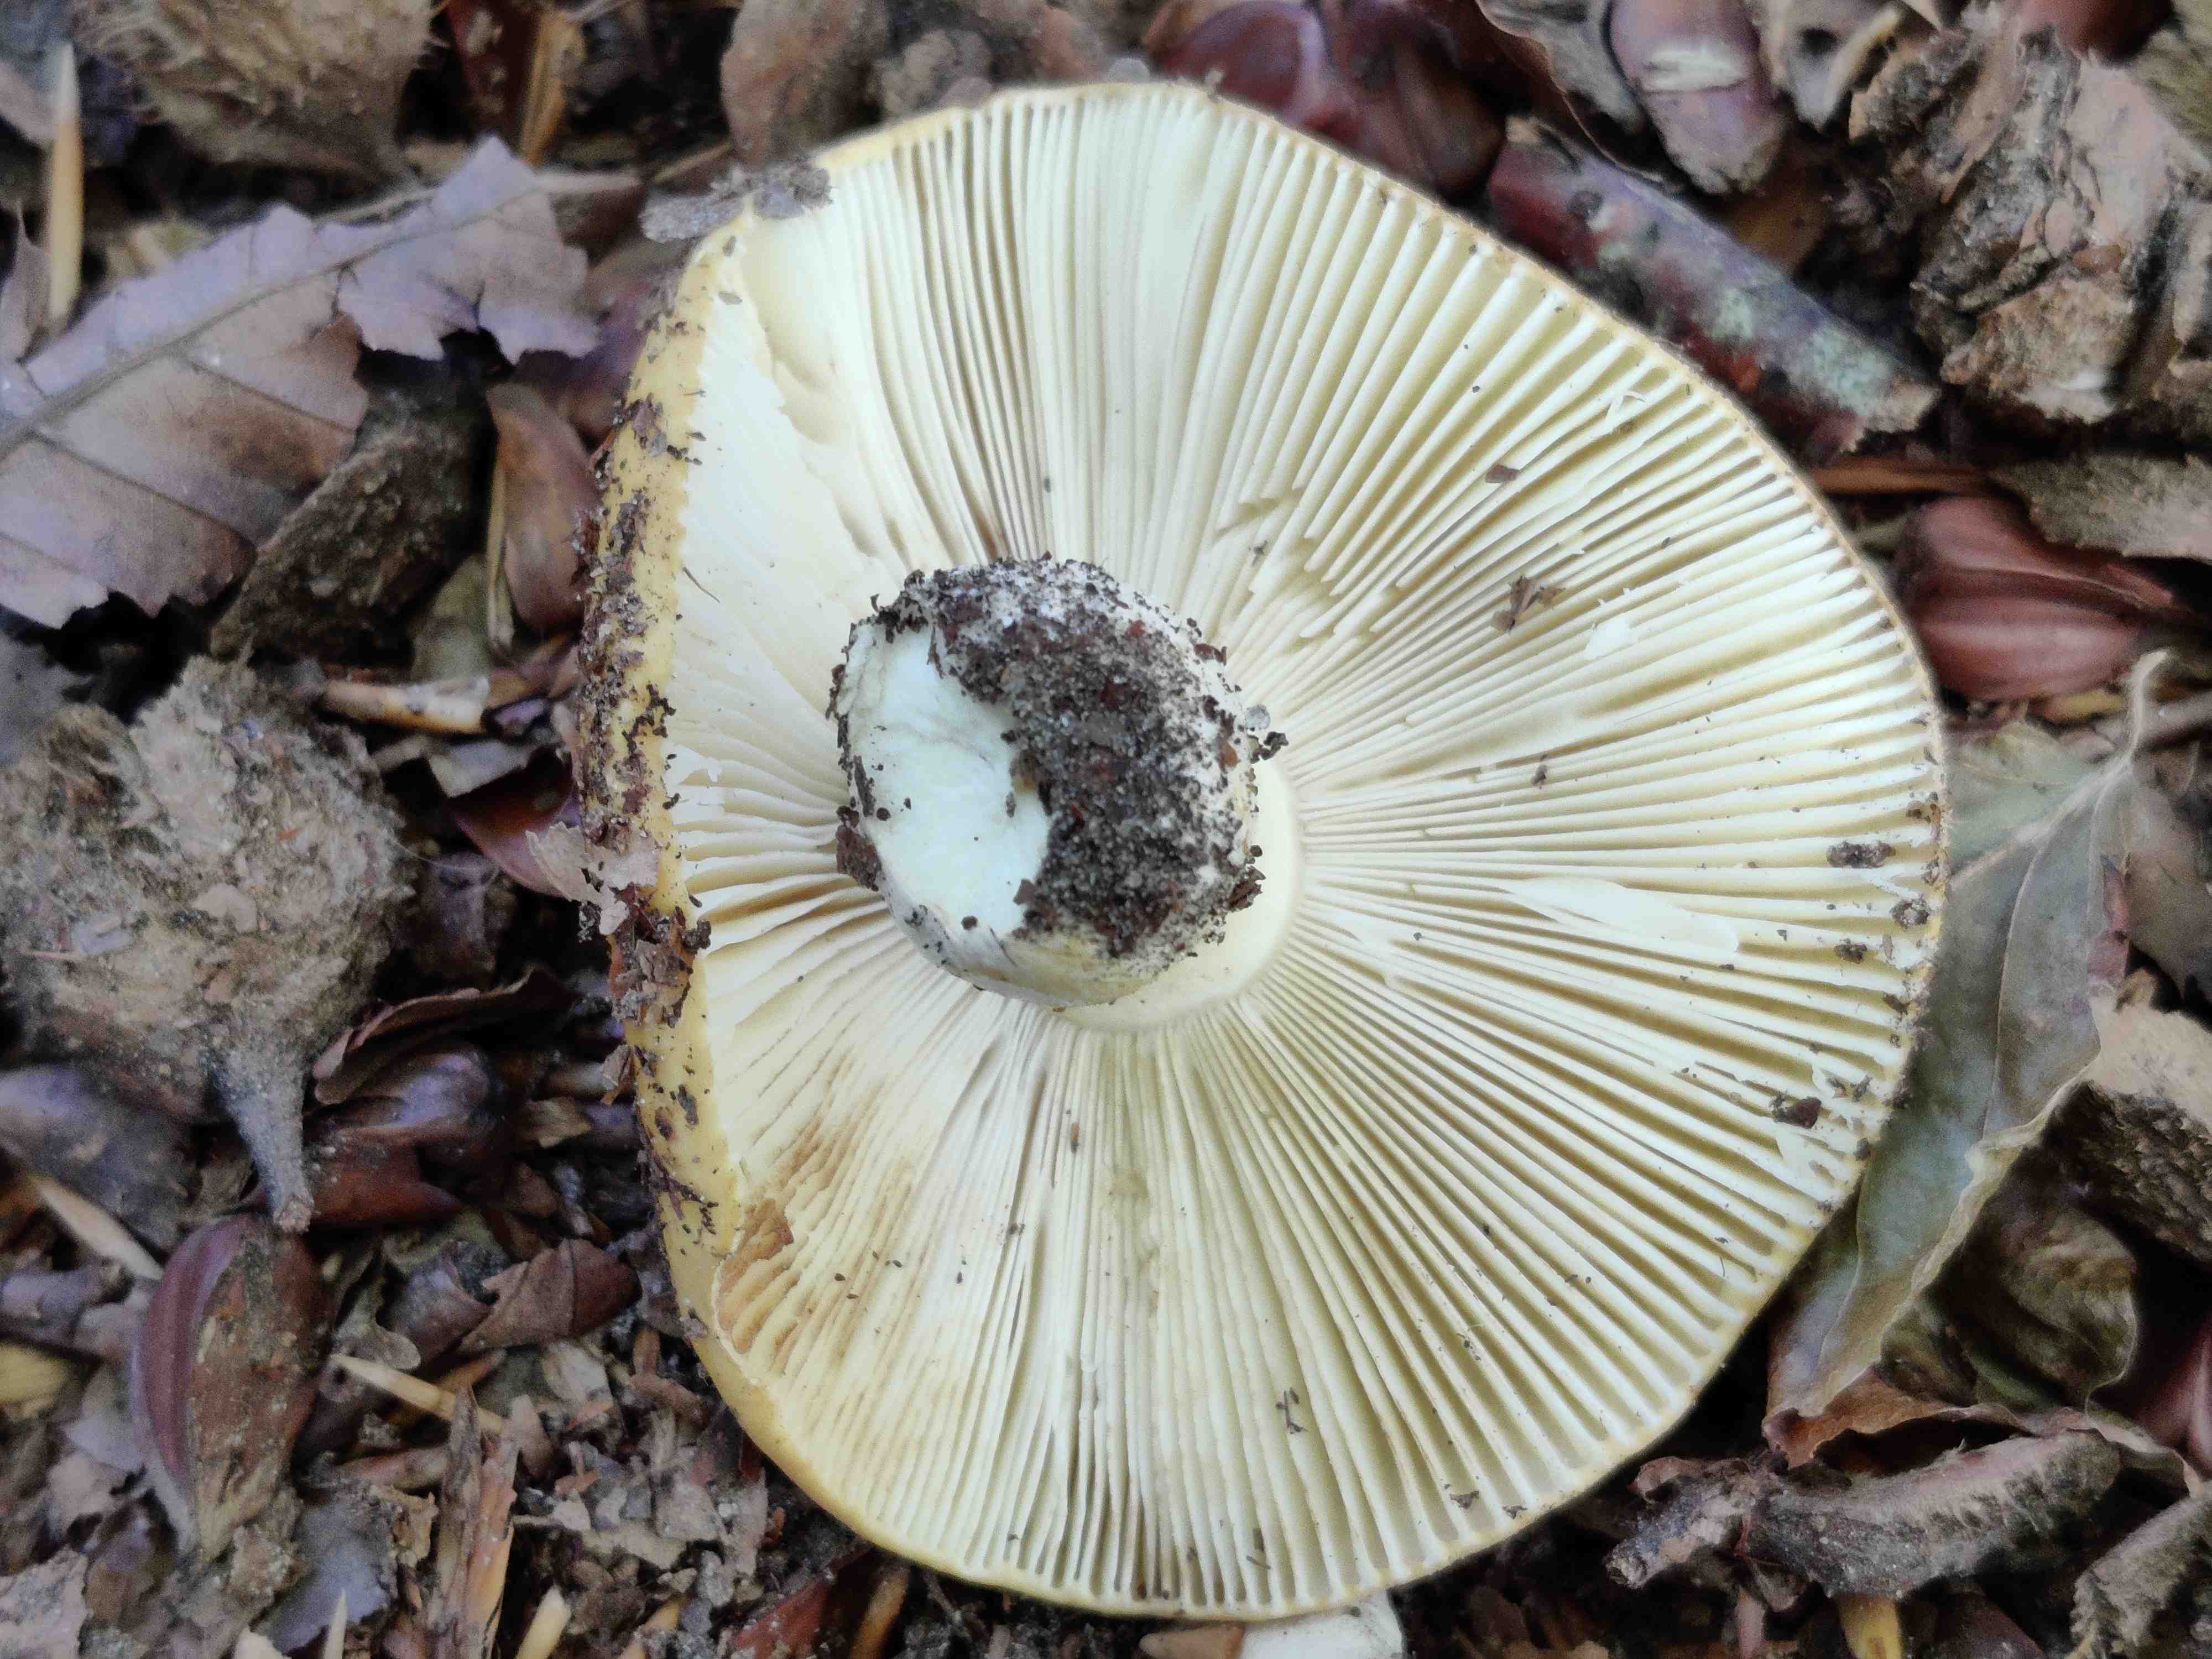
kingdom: Fungi
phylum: Basidiomycota
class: Agaricomycetes
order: Russulales
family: Russulaceae
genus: Russula
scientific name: Russula ochroleuca
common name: okkergul skørhat
